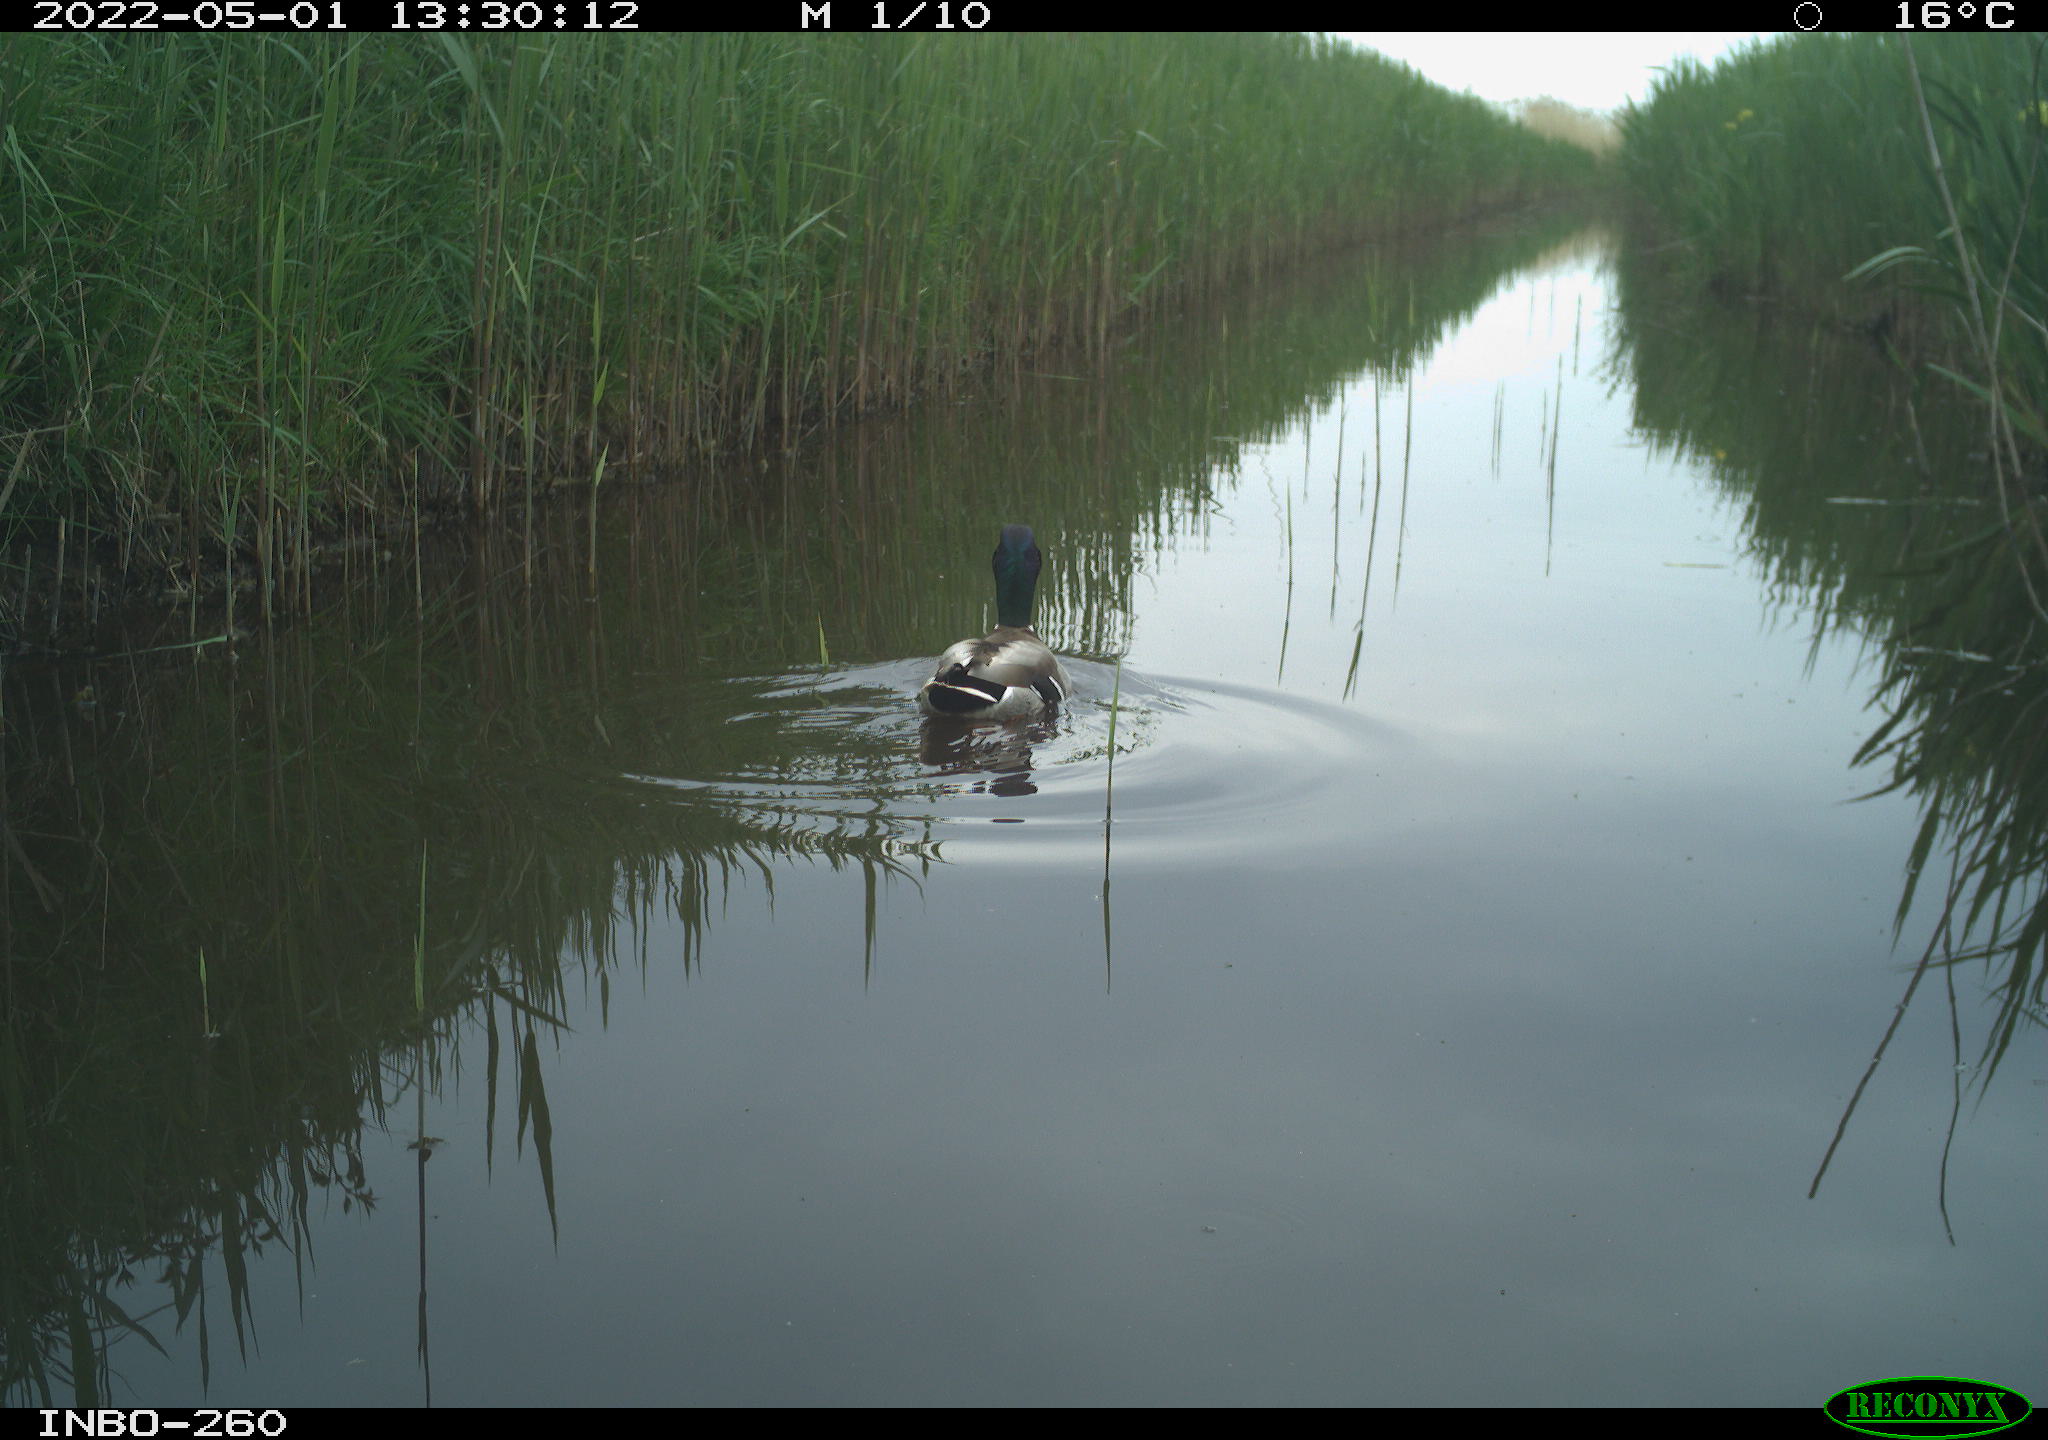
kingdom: Animalia
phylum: Chordata
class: Aves
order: Anseriformes
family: Anatidae
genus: Anas
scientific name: Anas platyrhynchos
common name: Mallard
